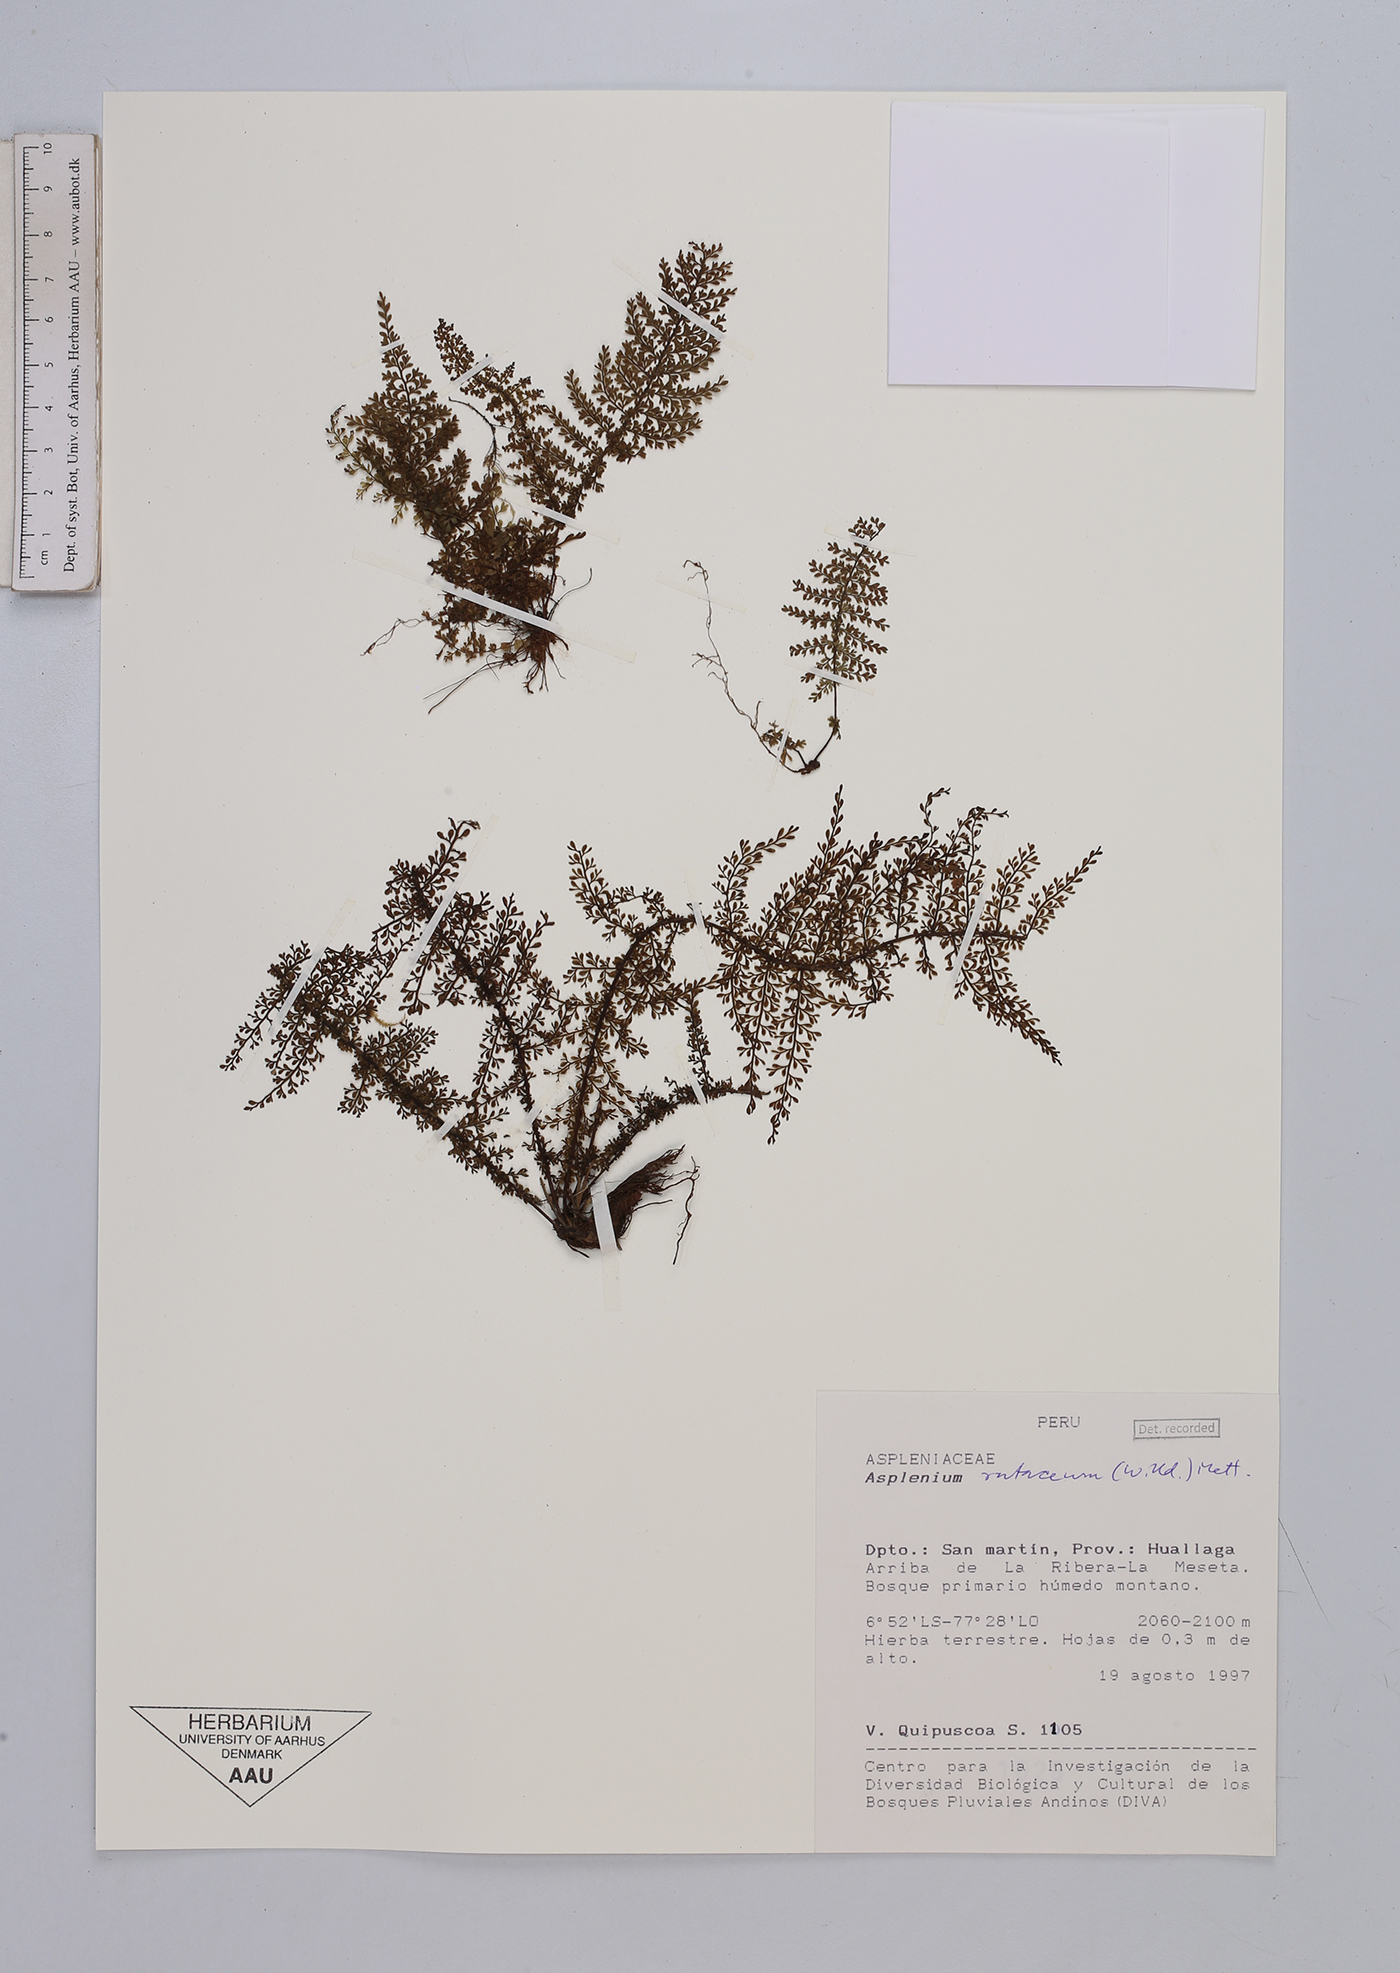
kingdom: Plantae
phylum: Tracheophyta
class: Polypodiopsida
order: Polypodiales
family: Aspleniaceae
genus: Asplenium
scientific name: Asplenium rutaceum
